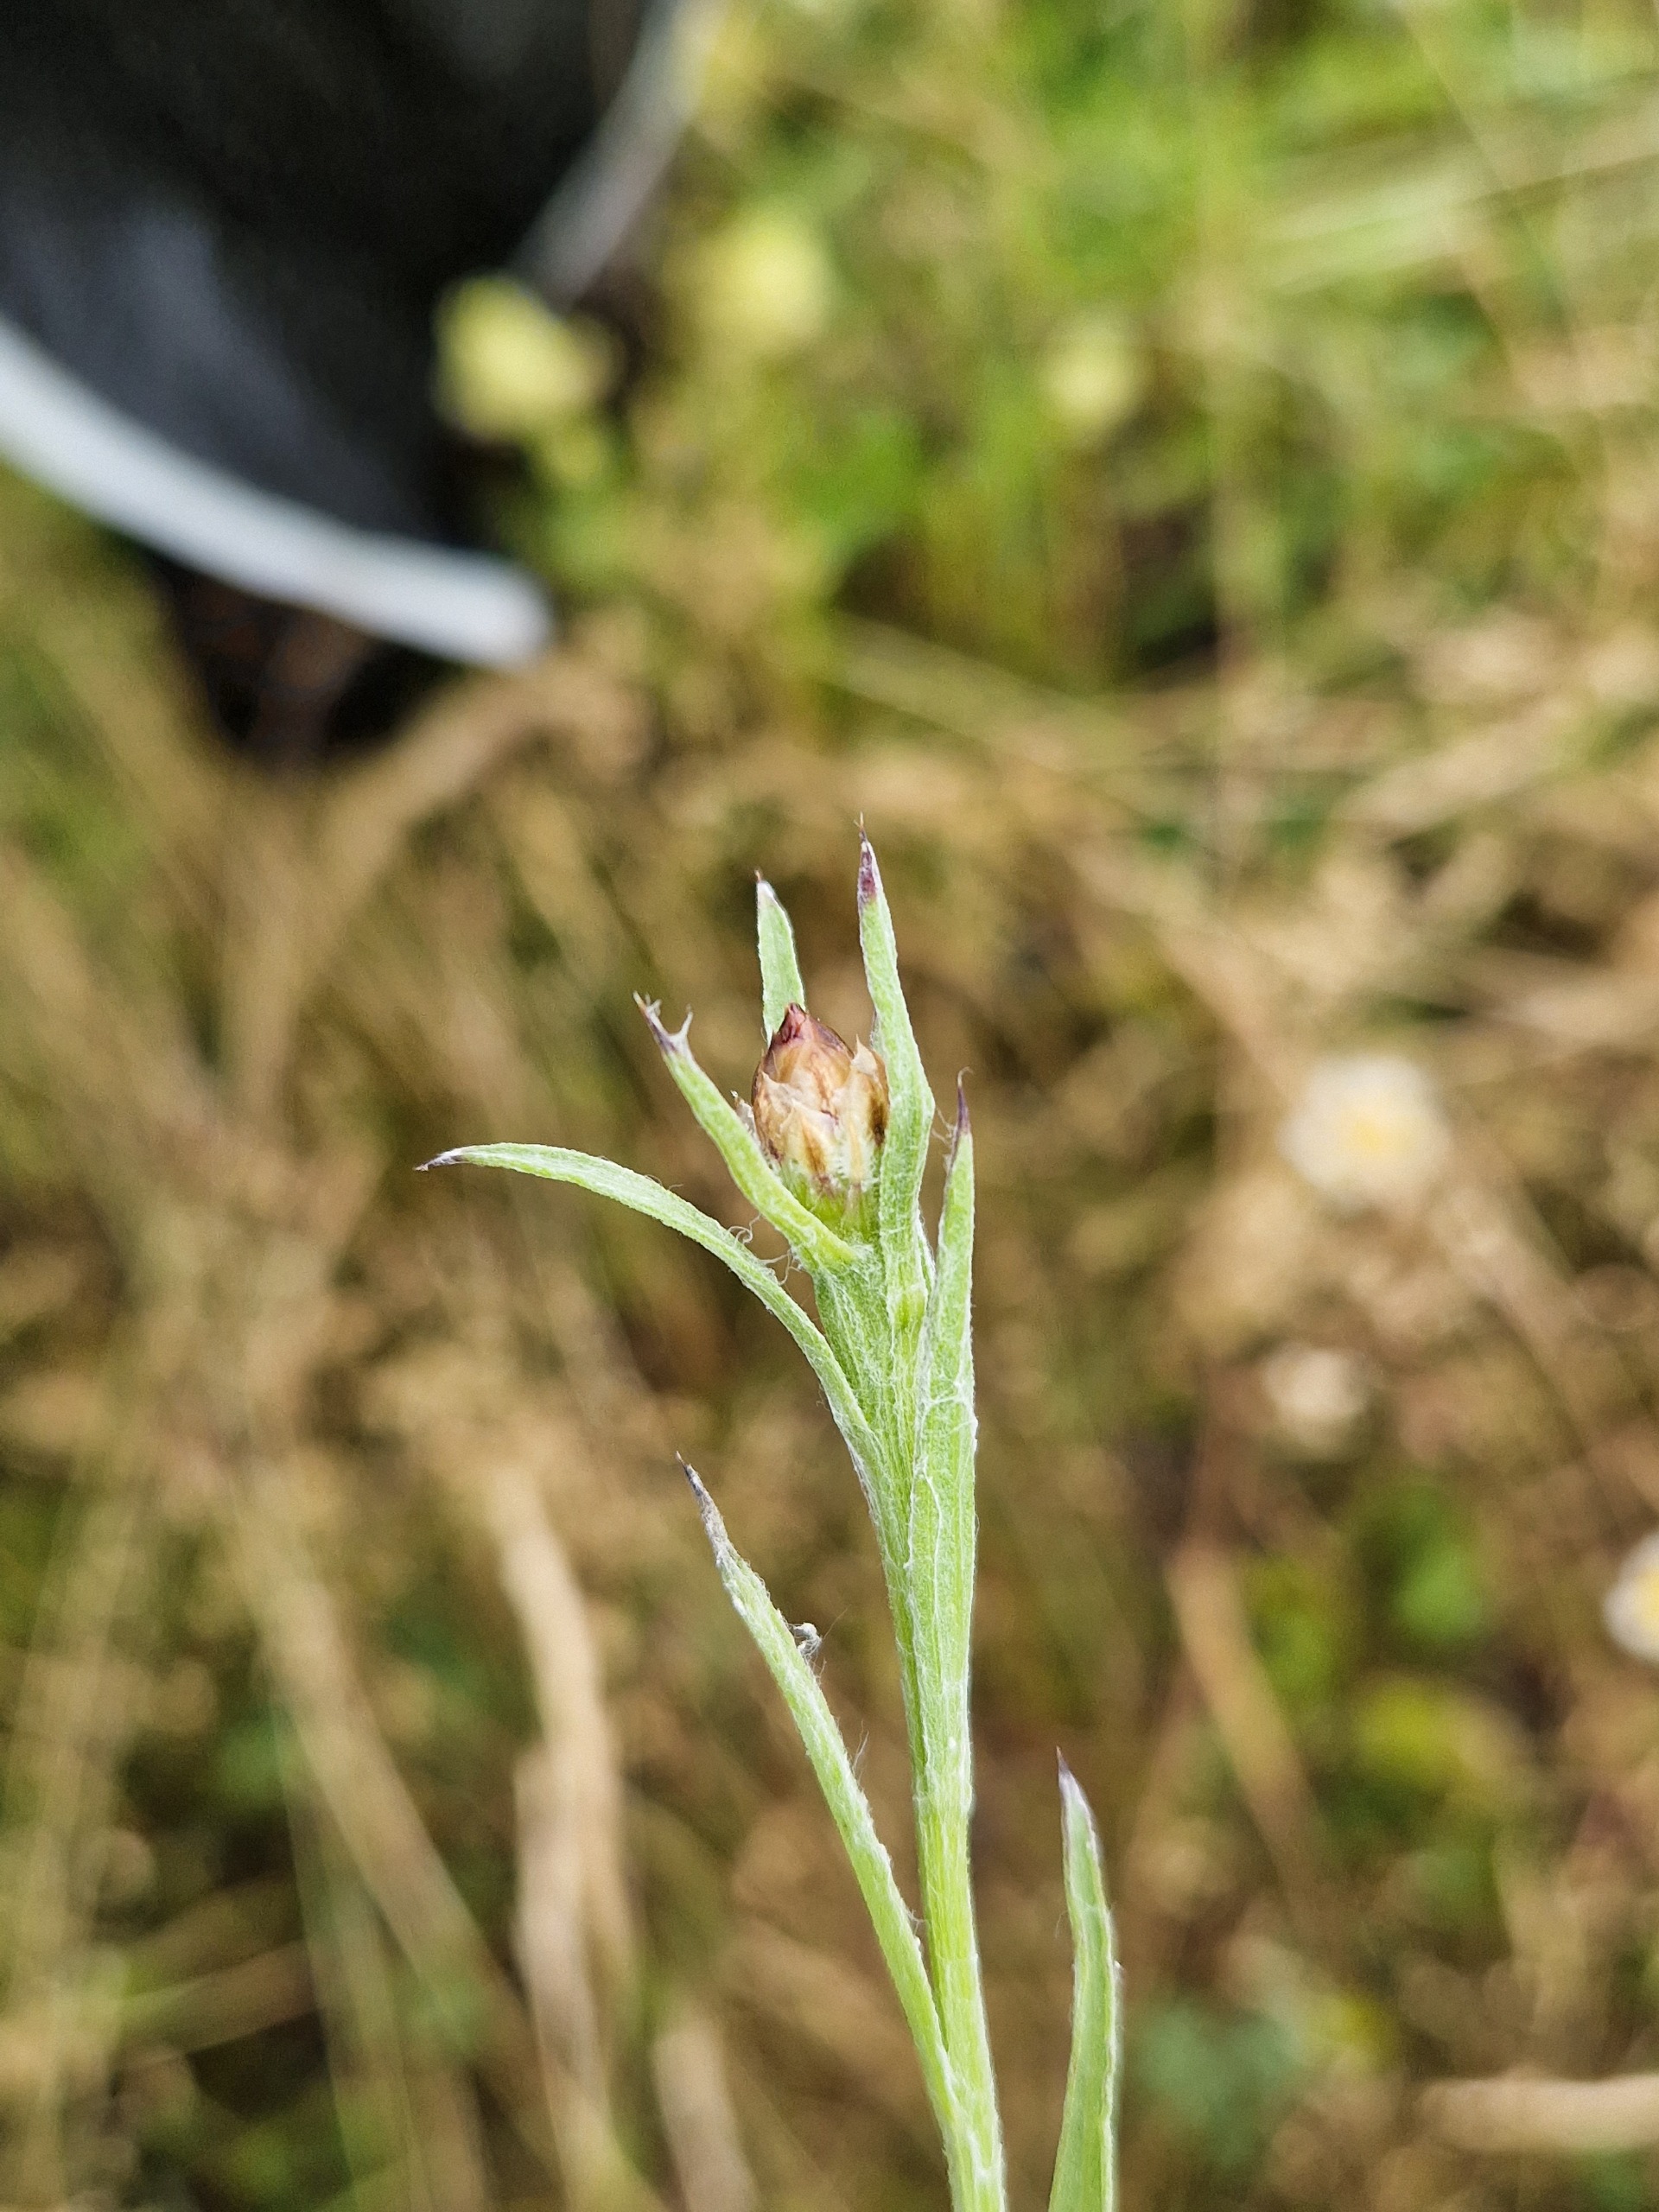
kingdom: Plantae
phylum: Tracheophyta
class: Magnoliopsida
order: Asterales
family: Asteraceae
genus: Centaurea
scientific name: Centaurea jacea
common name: Almindelig knopurt
